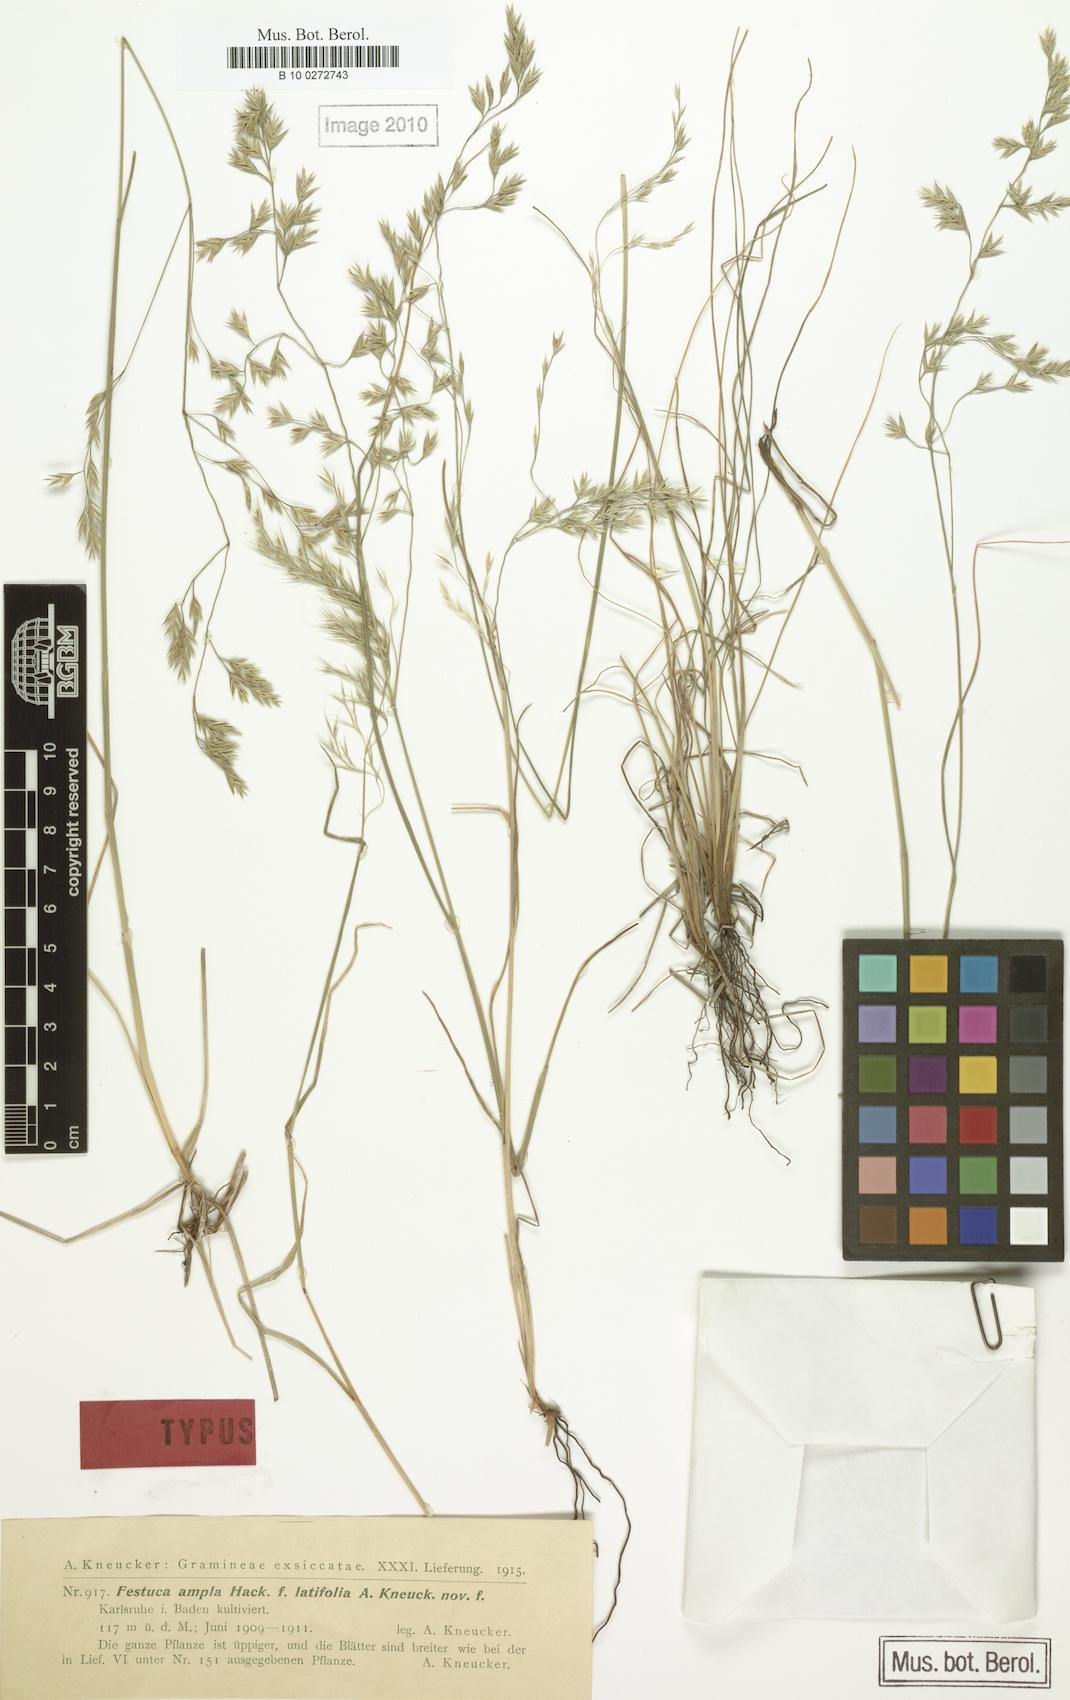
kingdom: Plantae
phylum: Tracheophyta
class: Liliopsida
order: Poales
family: Poaceae
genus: Festuca
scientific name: Festuca ampla
